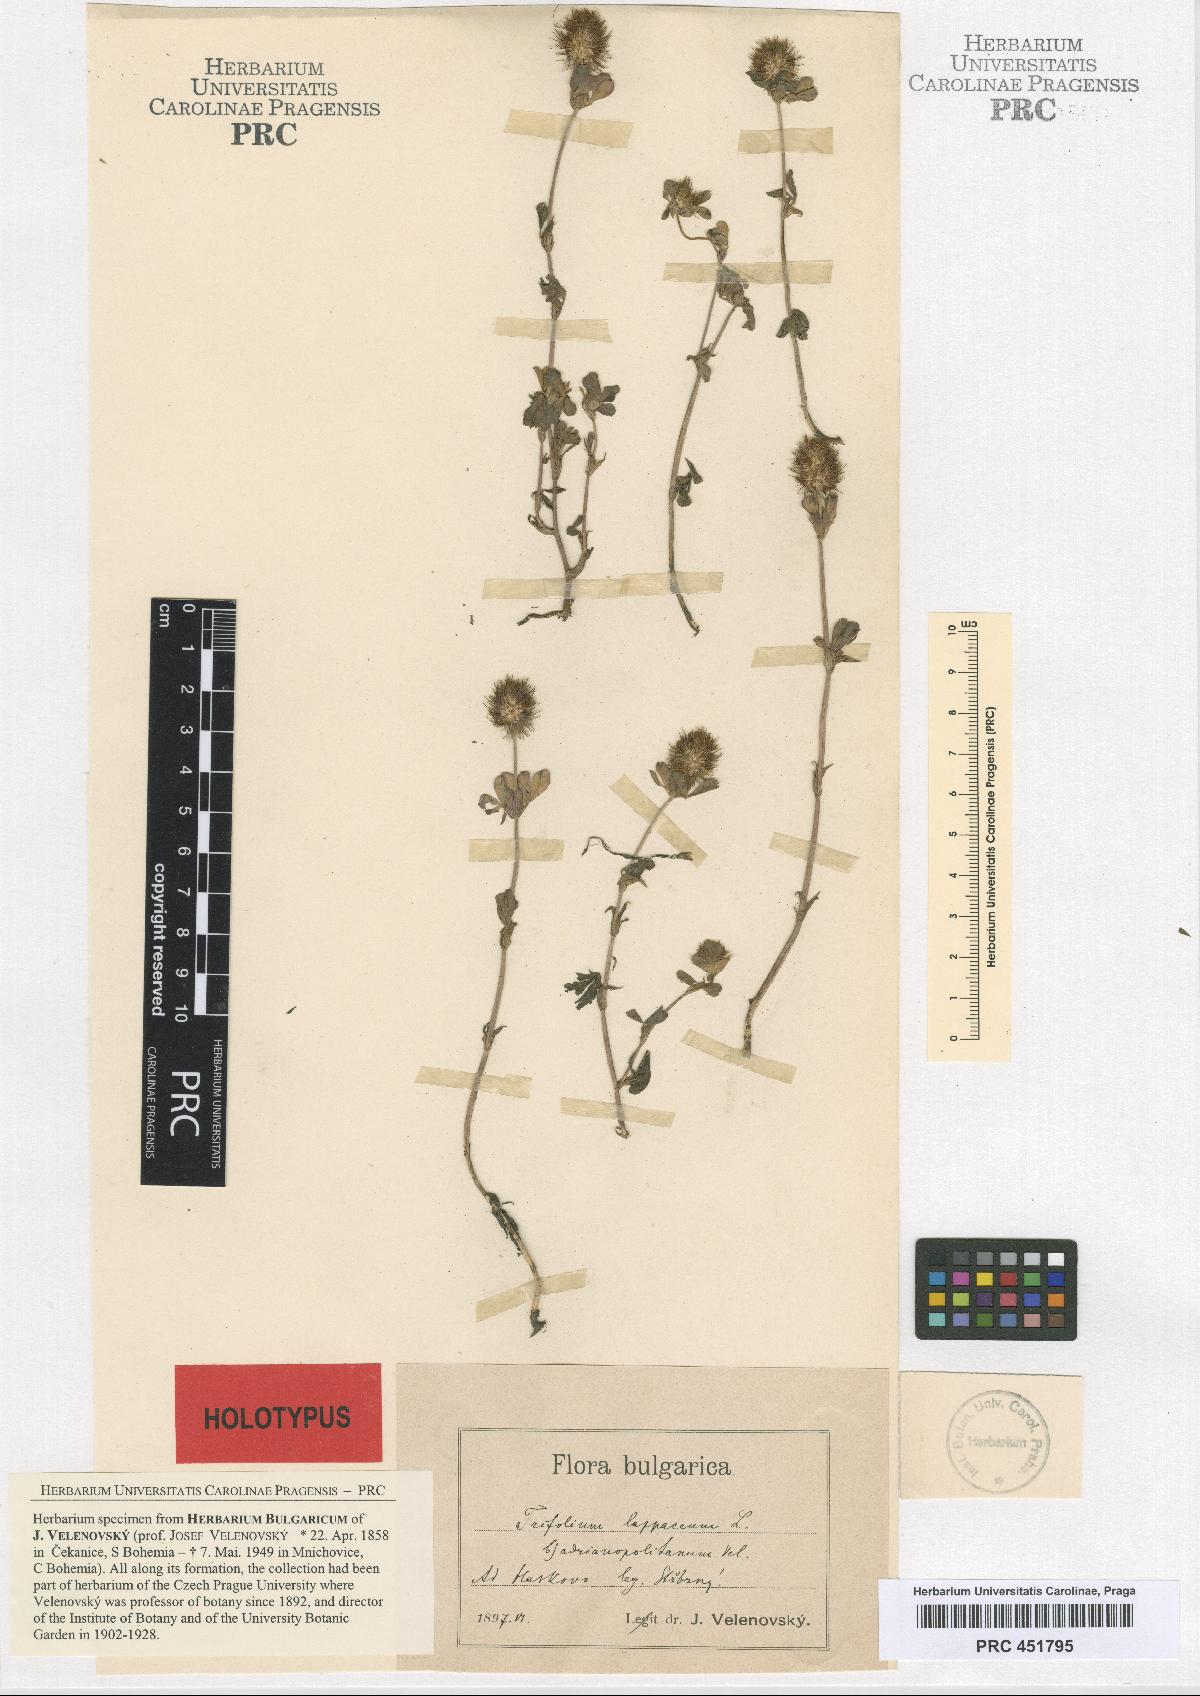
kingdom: Plantae
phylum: Tracheophyta
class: Magnoliopsida
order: Fabales
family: Fabaceae
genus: Trifolium
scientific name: Trifolium lappaceum
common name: Bur clover
